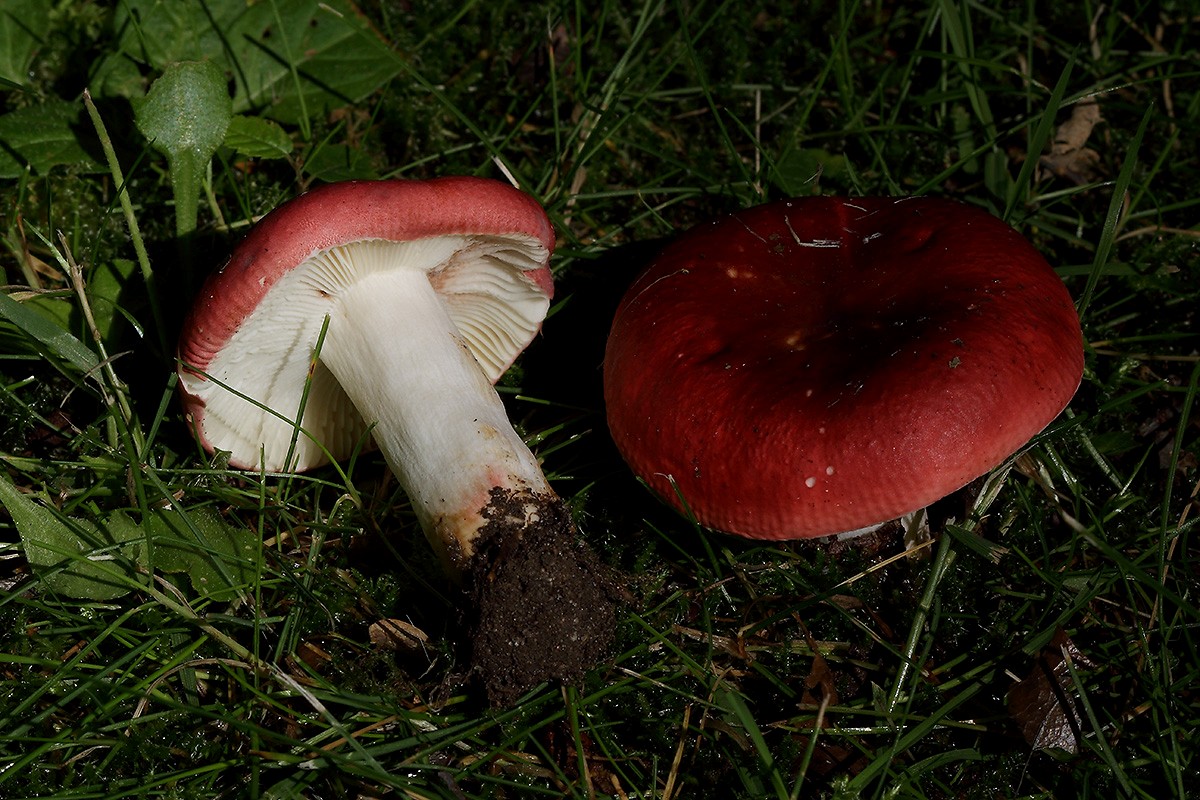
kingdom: Fungi
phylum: Basidiomycota
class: Agaricomycetes
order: Russulales
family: Russulaceae
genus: Russula
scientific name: Russula graveolens
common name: bugtet skørhat
